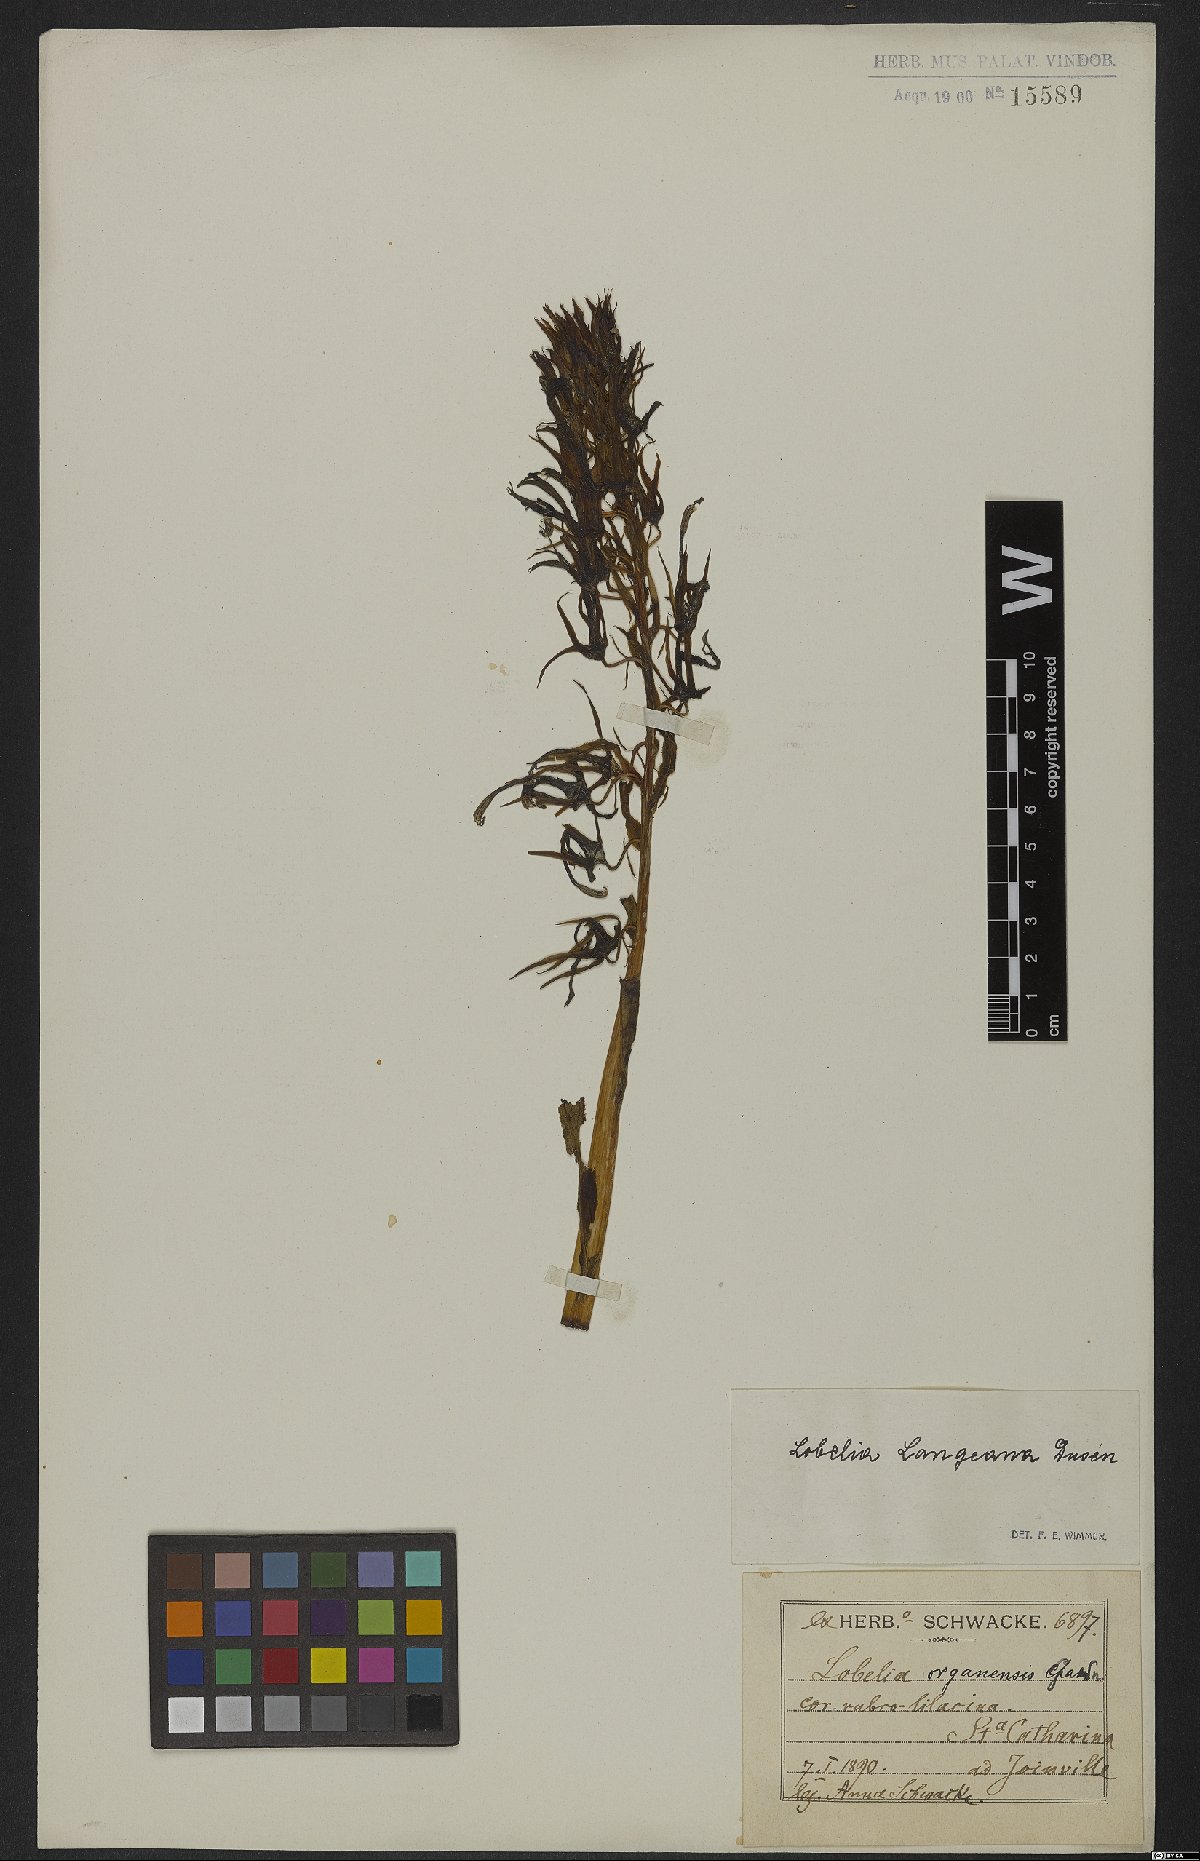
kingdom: Plantae
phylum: Tracheophyta
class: Magnoliopsida
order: Asterales
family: Campanulaceae
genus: Lobelia
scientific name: Lobelia langeana
